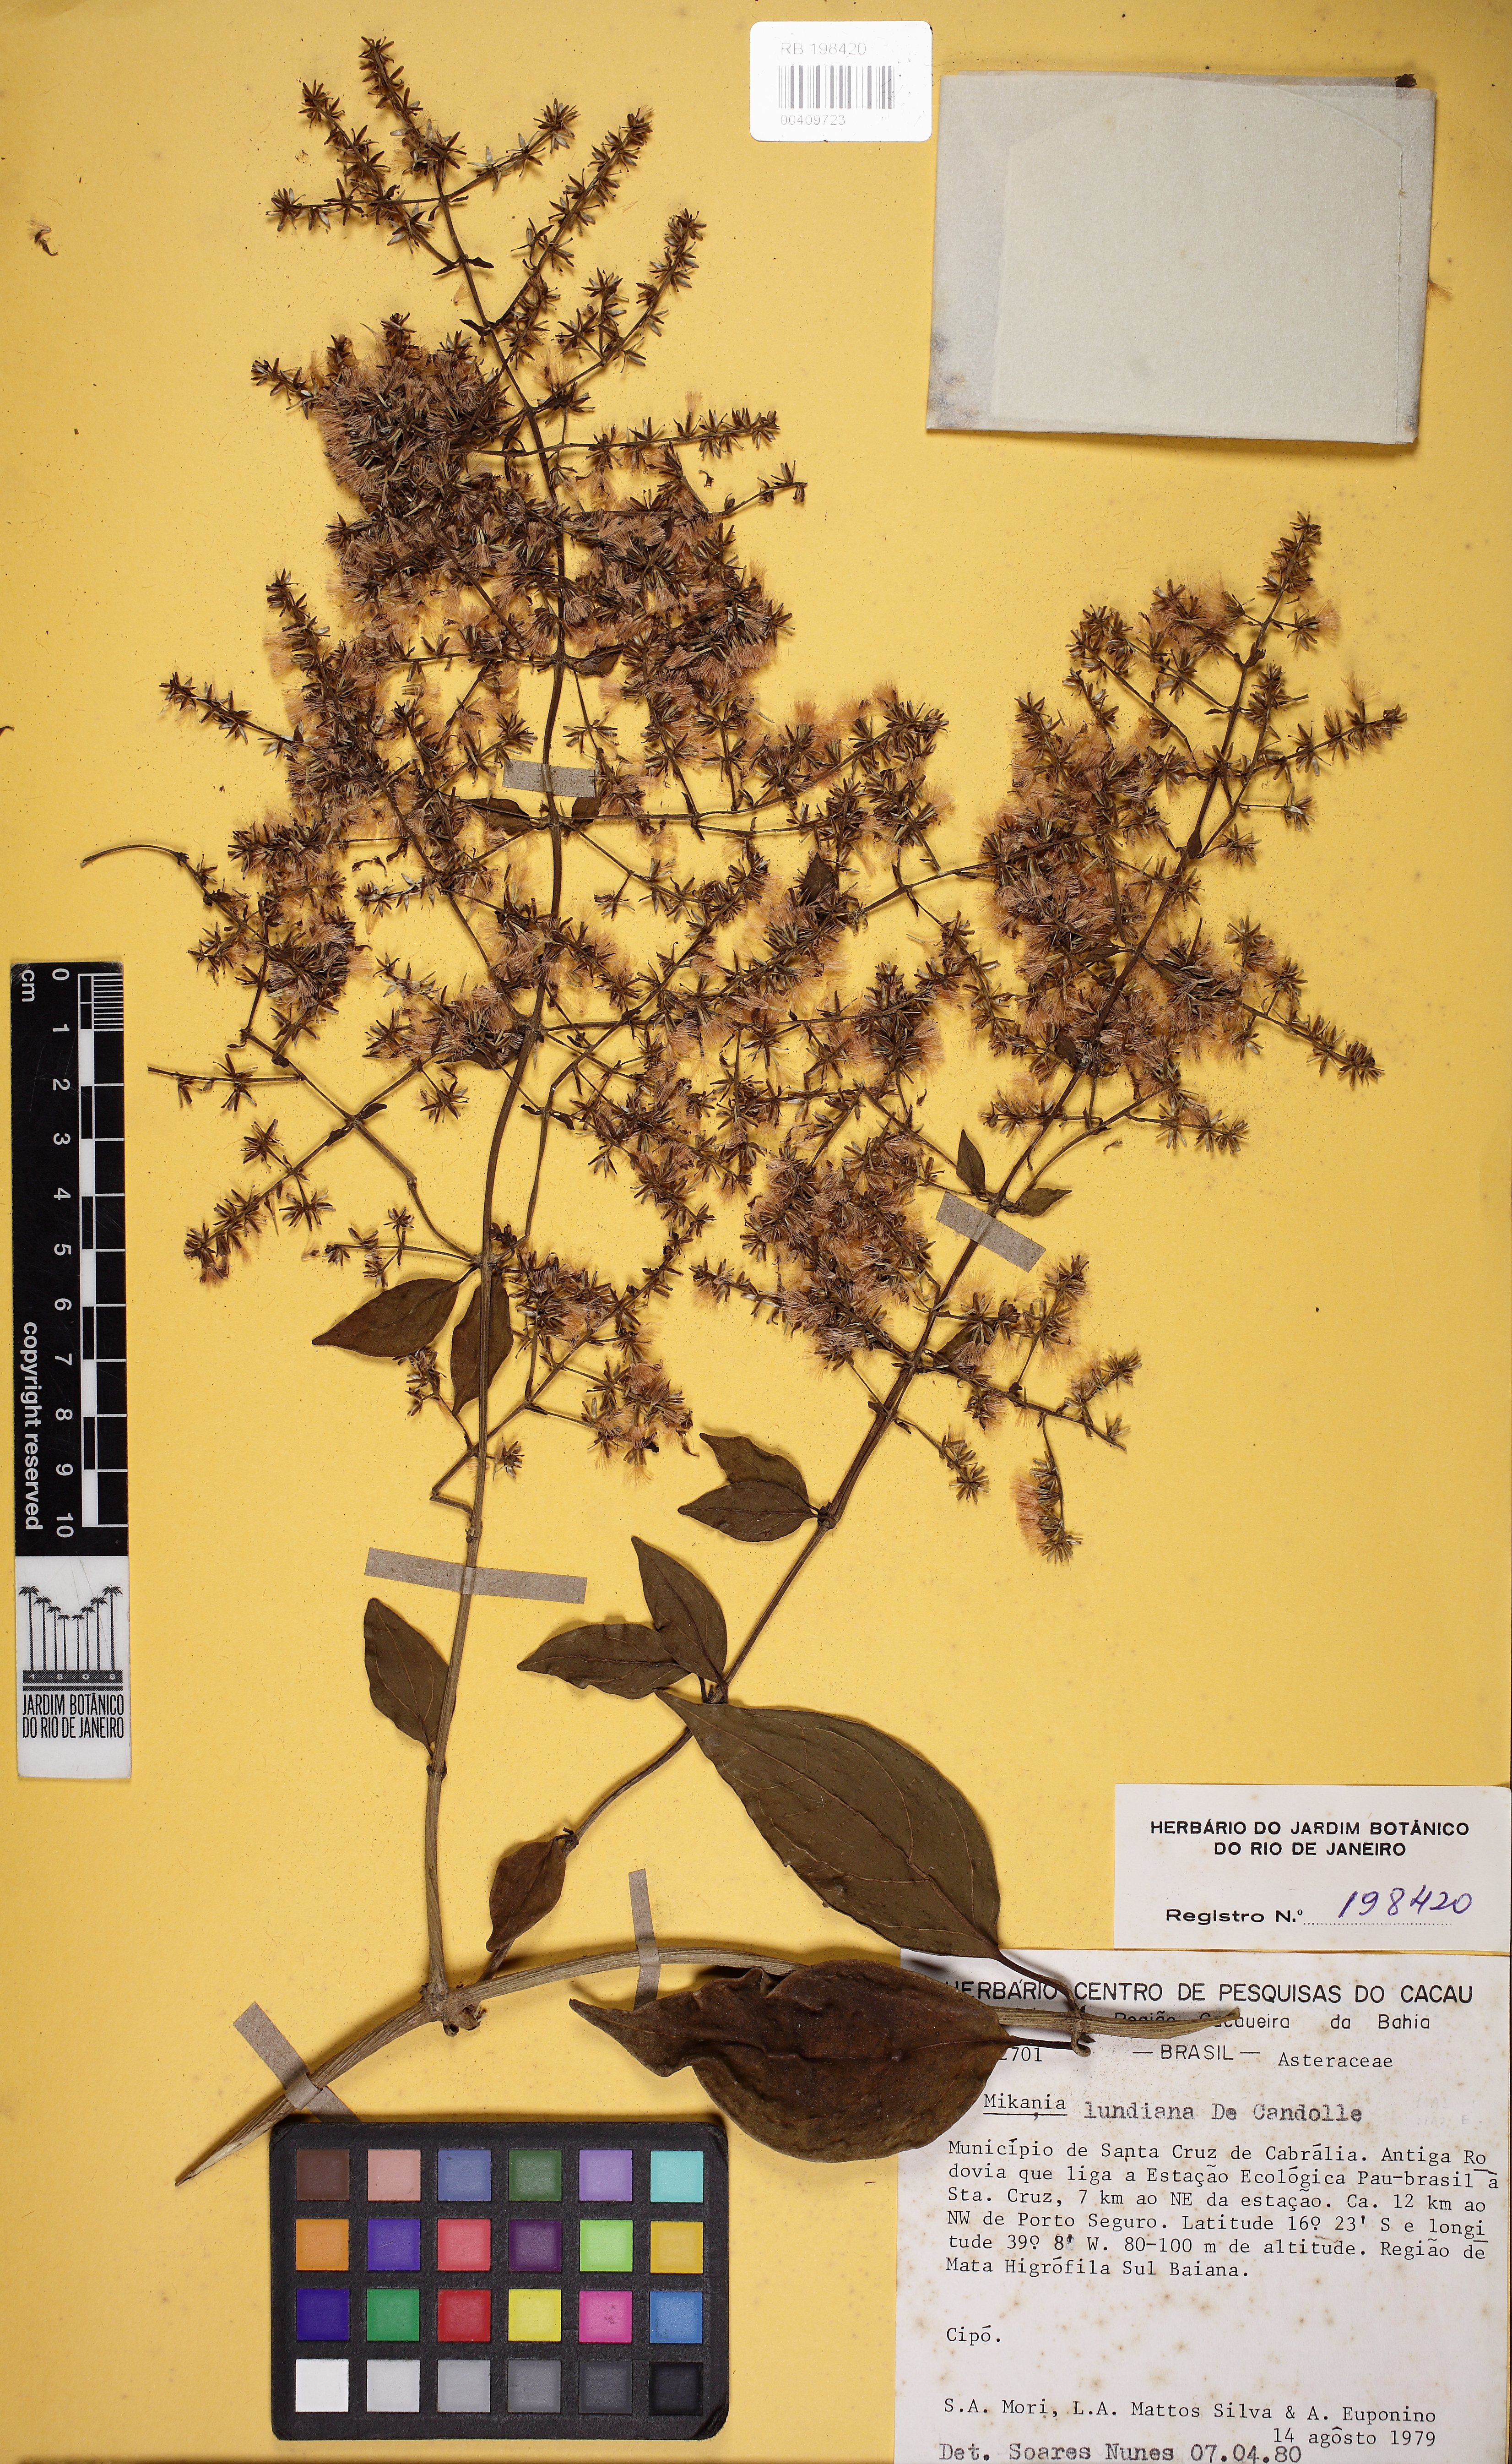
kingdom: Plantae
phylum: Tracheophyta
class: Magnoliopsida
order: Asterales
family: Asteraceae
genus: Mikania
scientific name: Mikania lundiana
